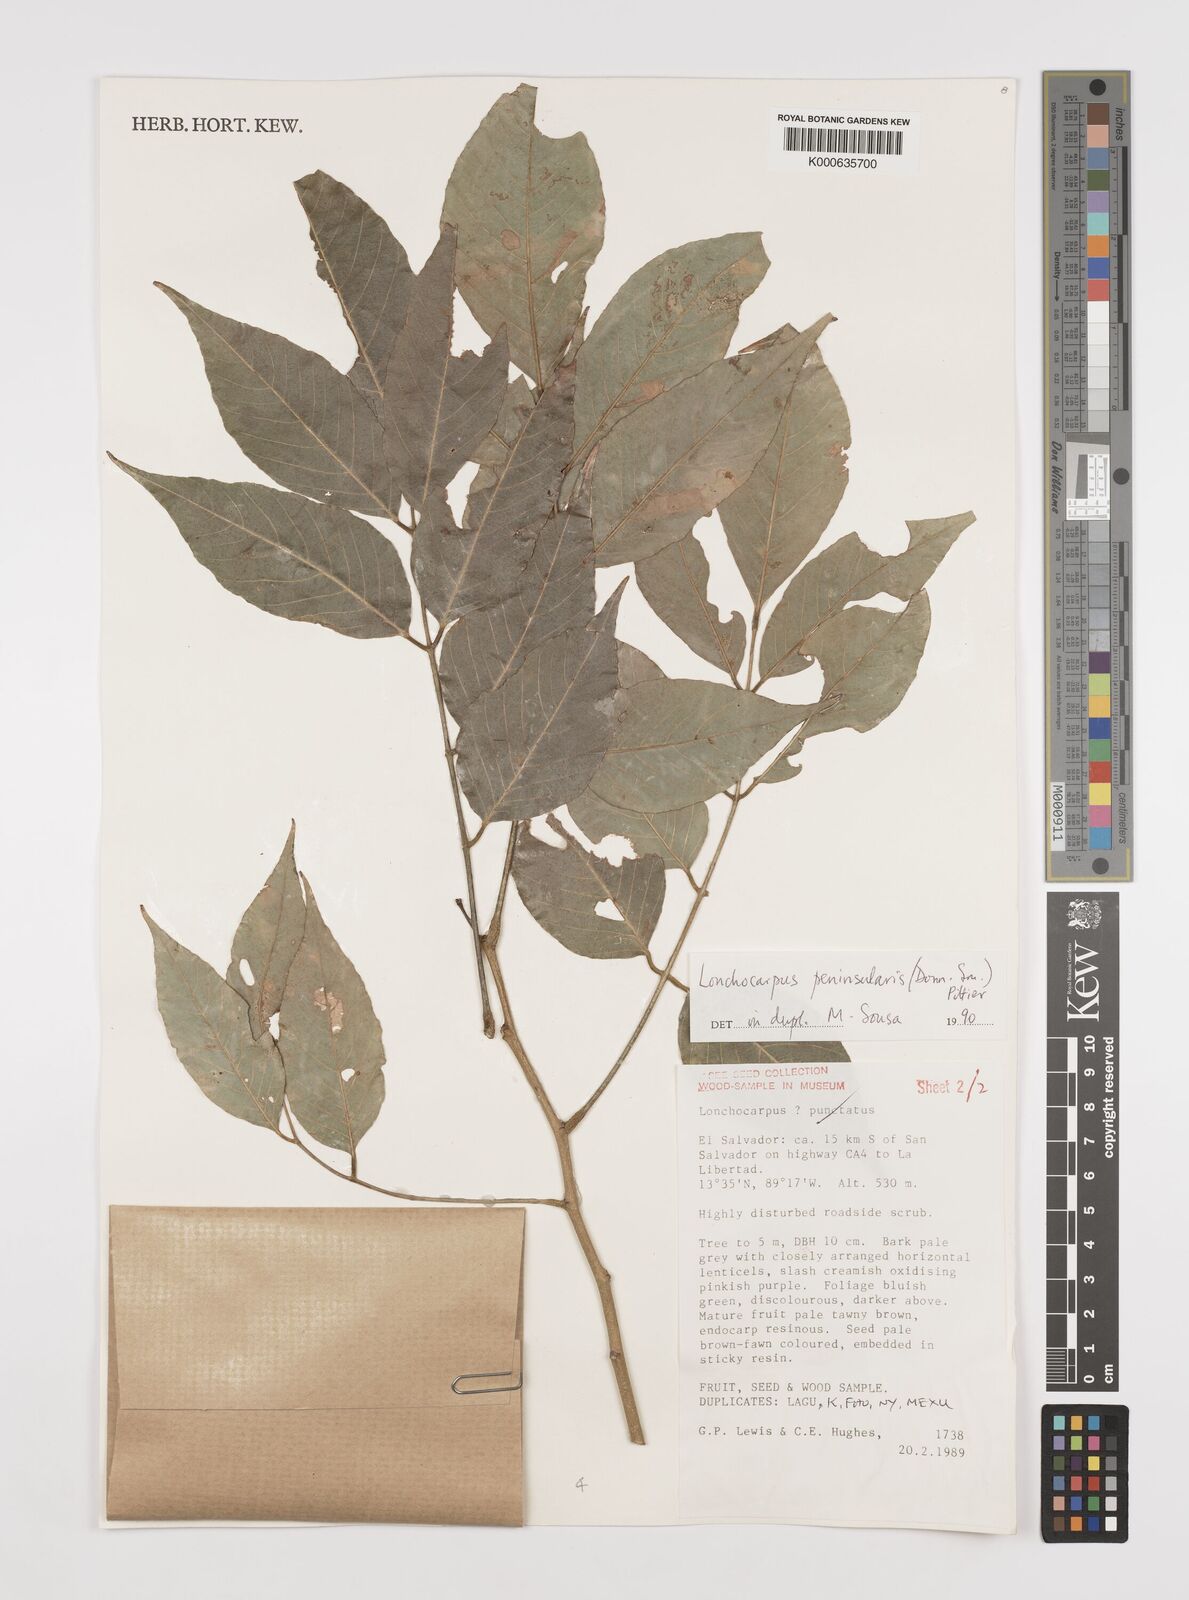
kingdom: Plantae
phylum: Tracheophyta
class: Magnoliopsida
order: Fabales
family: Fabaceae
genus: Lonchocarpus
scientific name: Lonchocarpus
